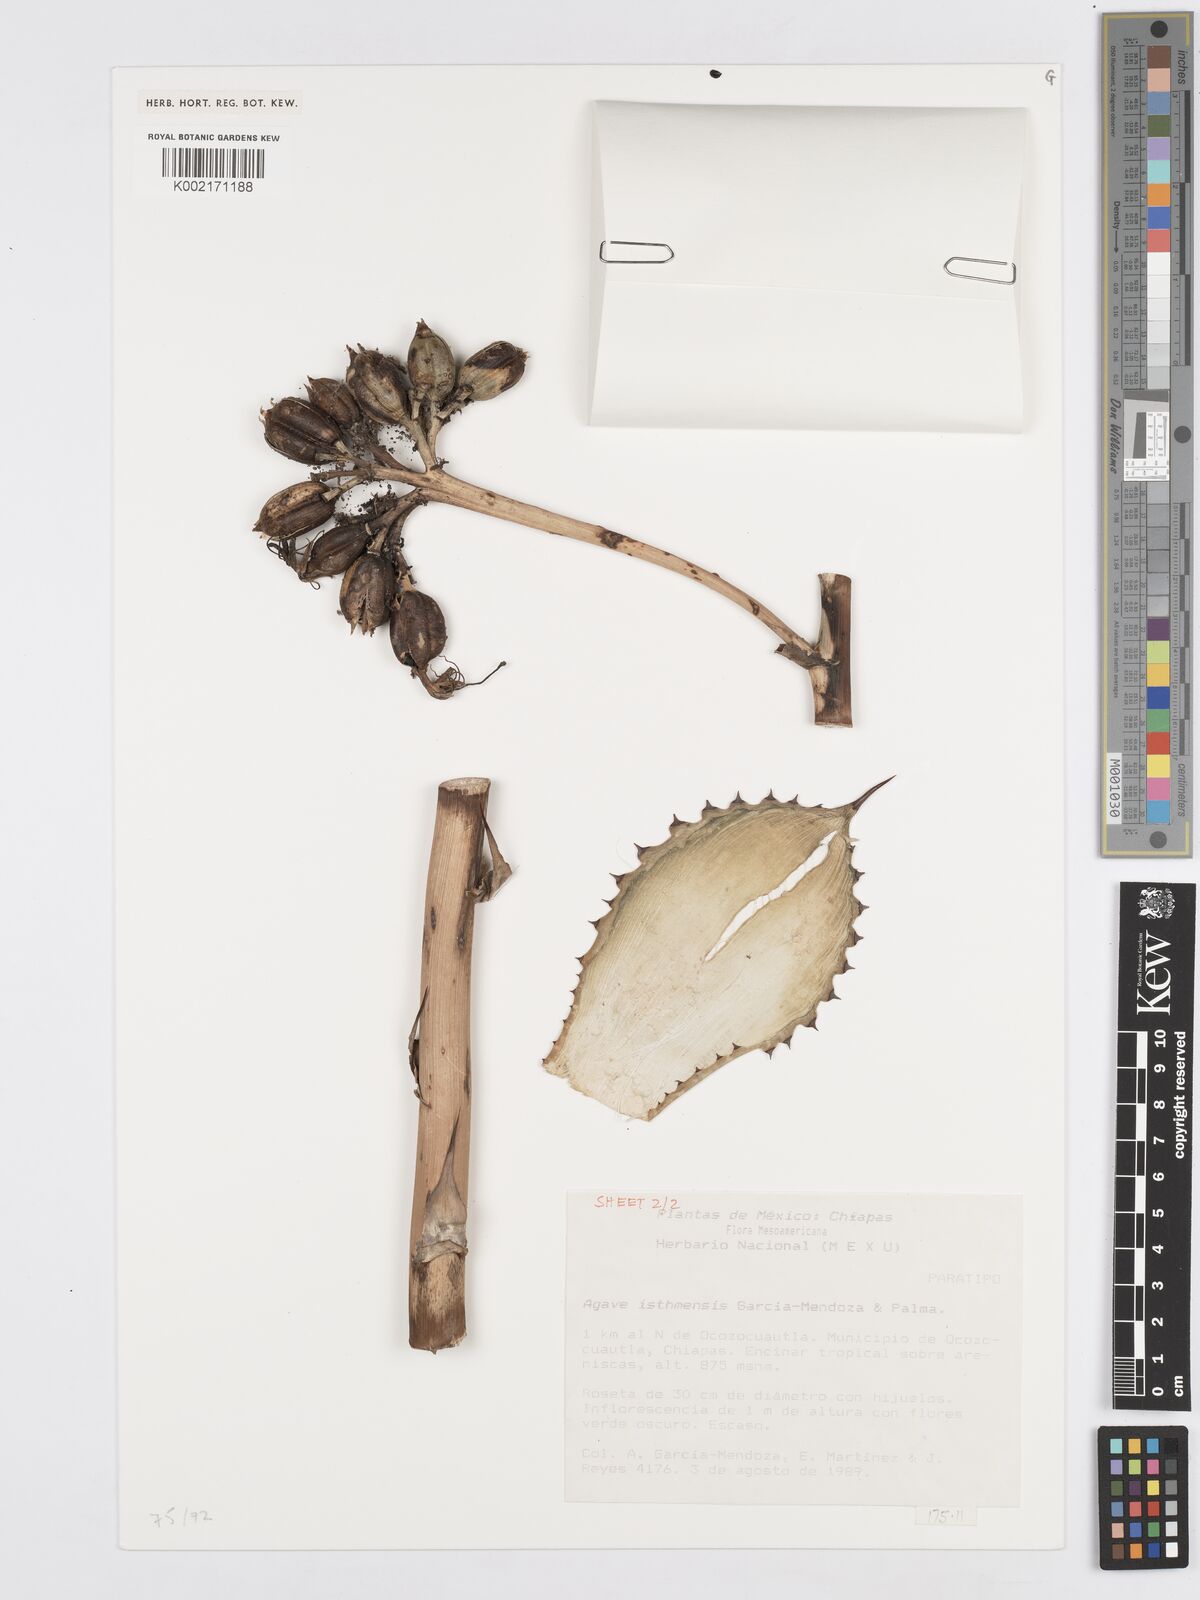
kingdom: Plantae
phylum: Tracheophyta
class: Liliopsida
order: Asparagales
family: Asparagaceae
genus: Agave
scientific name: Agave isthmensis
